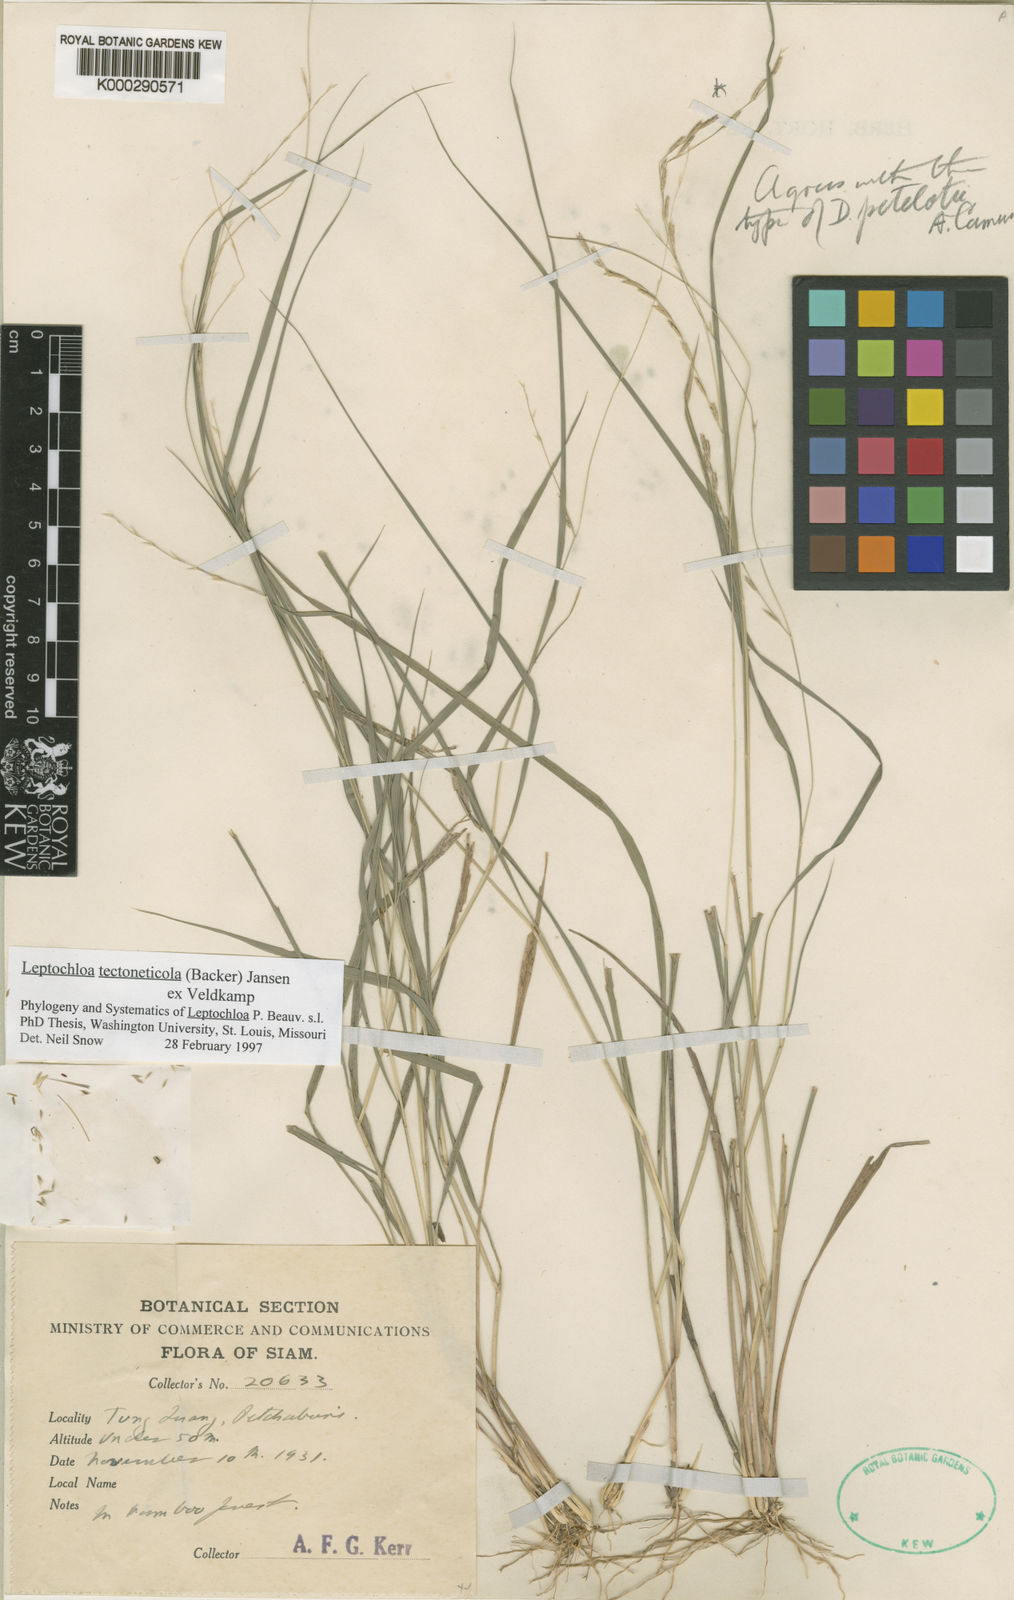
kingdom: Plantae
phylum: Tracheophyta
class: Liliopsida
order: Poales
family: Poaceae
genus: Leptochloa
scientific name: Leptochloa tectoneticola
